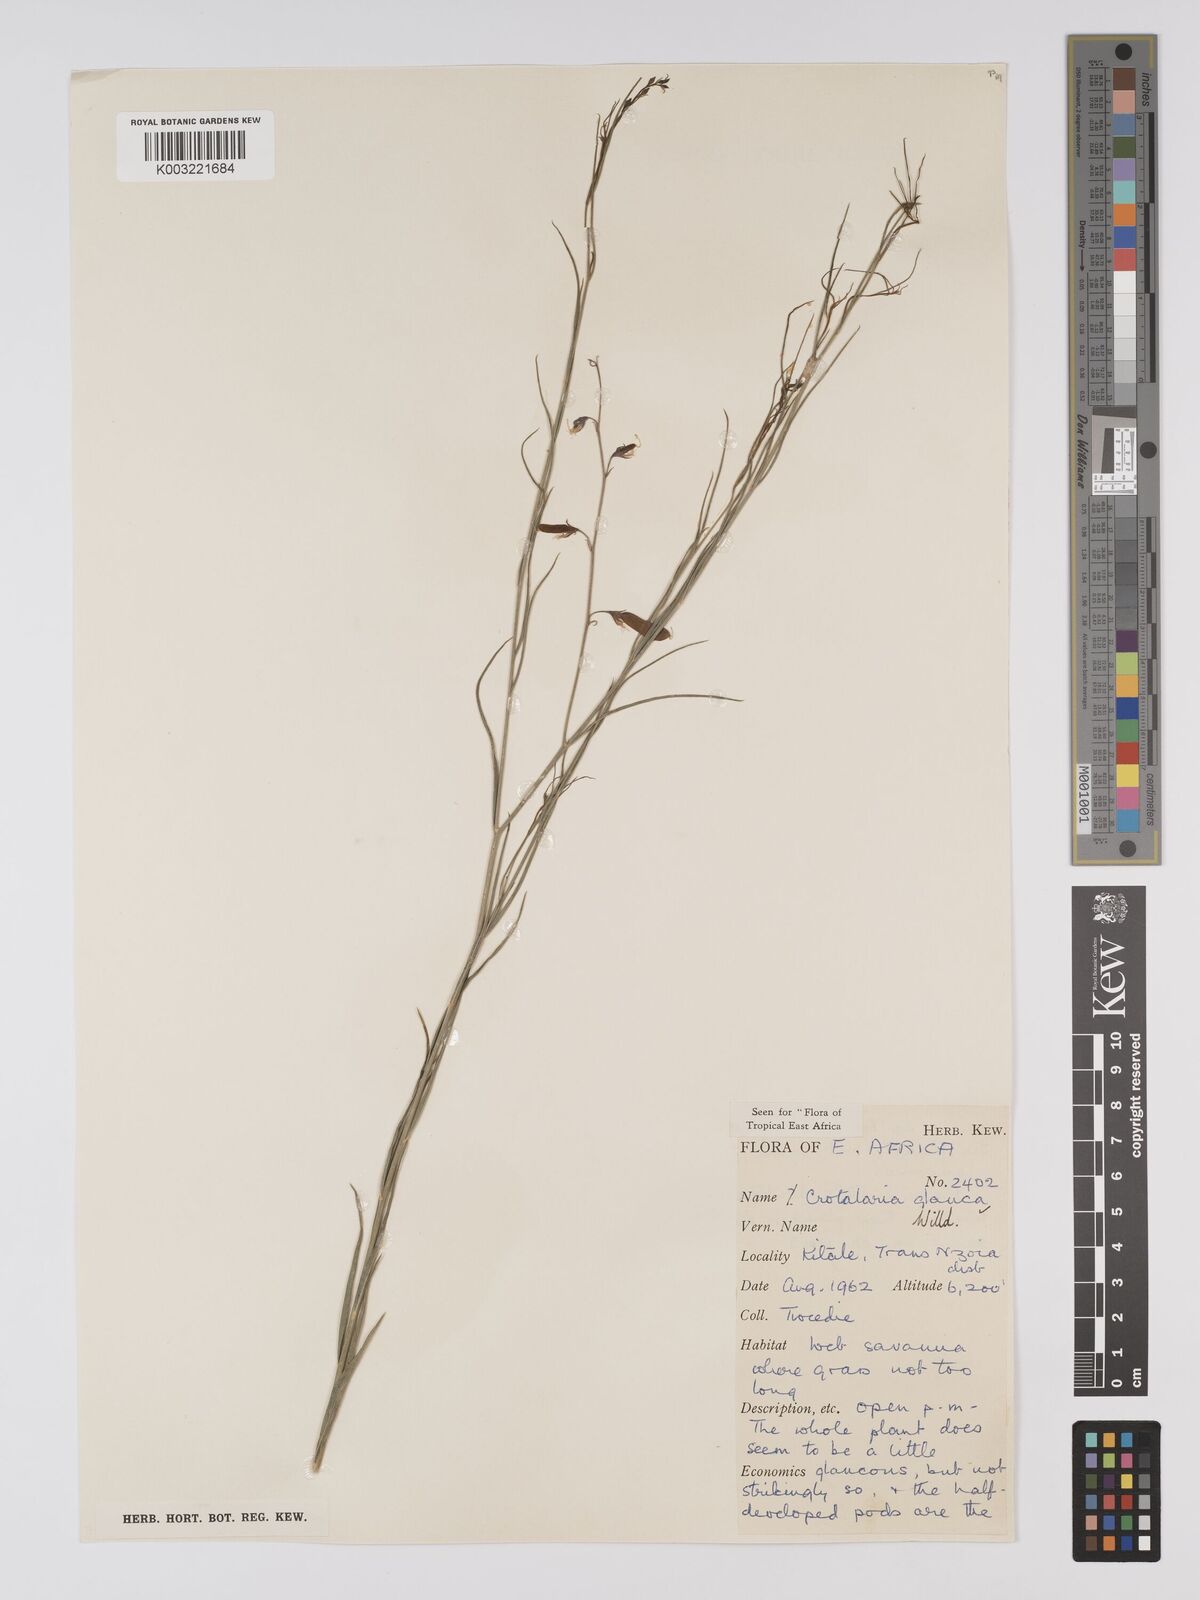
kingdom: Plantae
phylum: Tracheophyta
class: Magnoliopsida
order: Fabales
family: Fabaceae
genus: Crotalaria
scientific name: Crotalaria glauca
